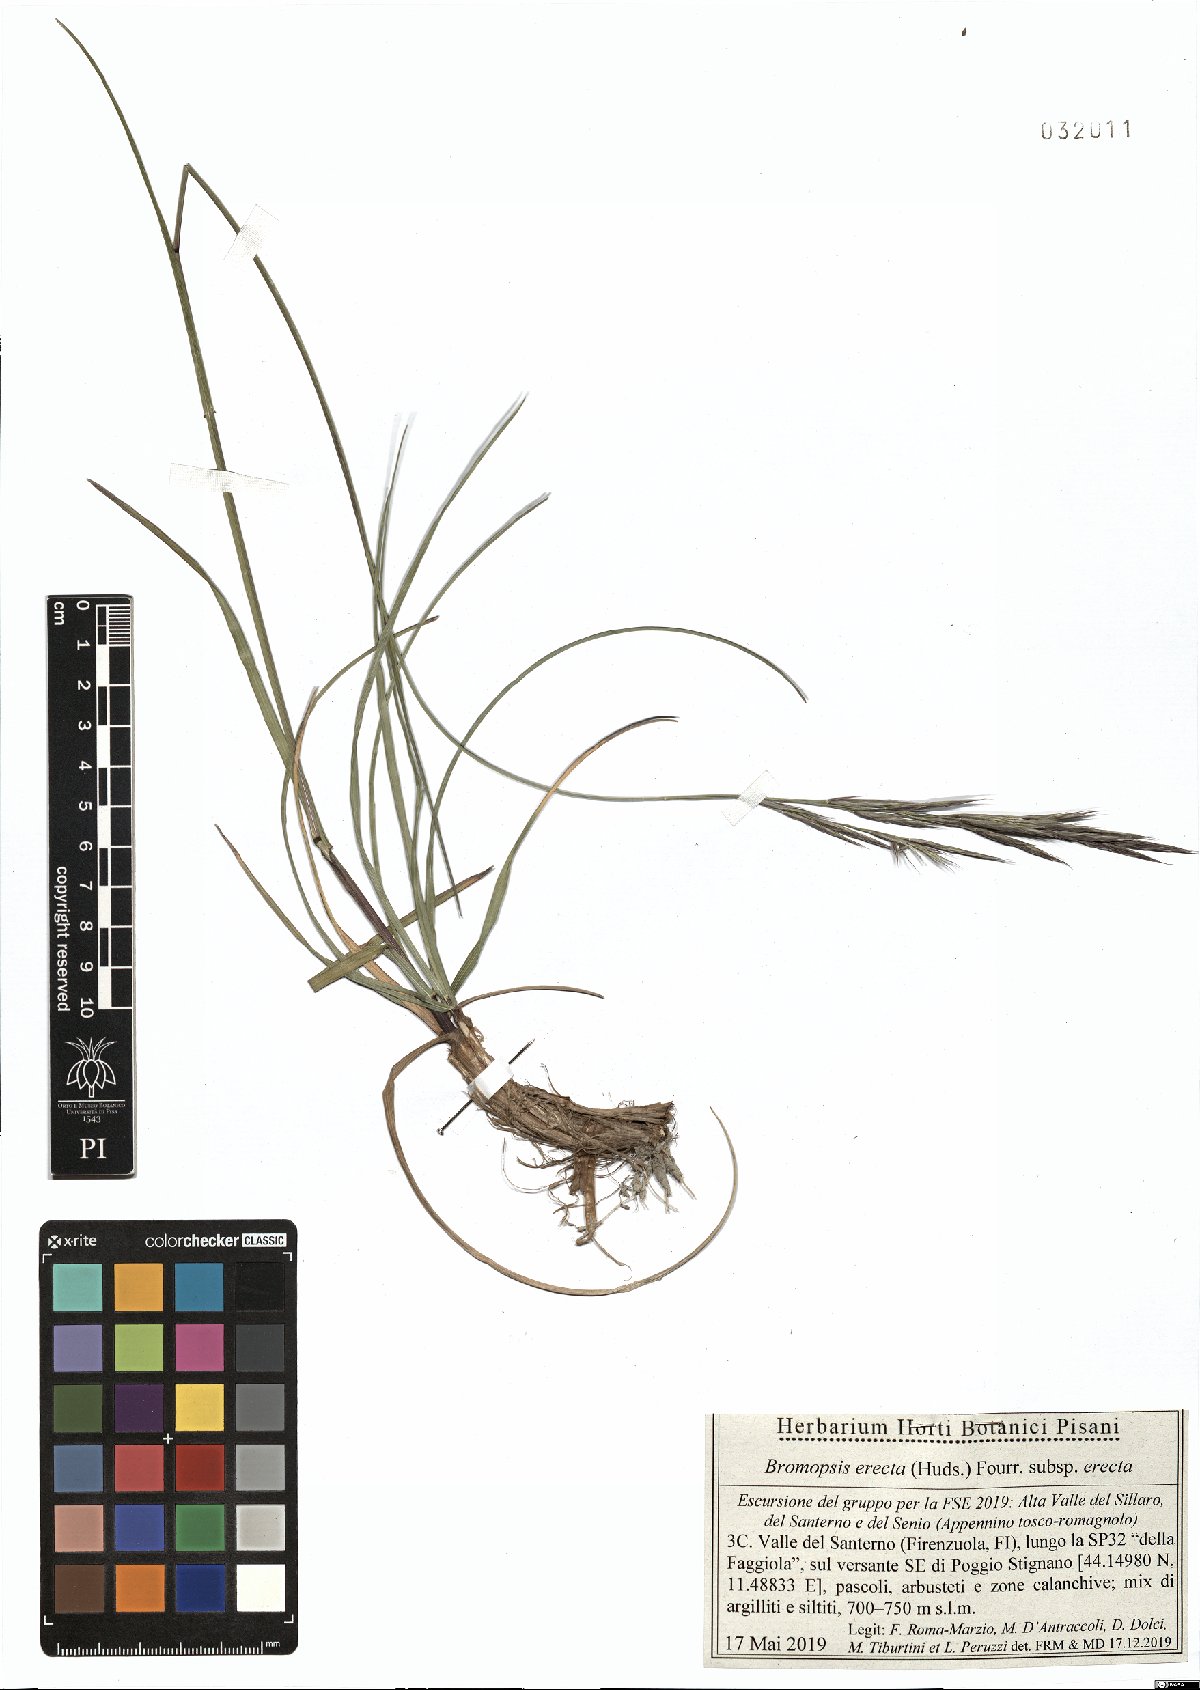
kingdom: Plantae
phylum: Tracheophyta
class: Liliopsida
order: Poales
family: Poaceae
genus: Bromus
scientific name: Bromus erectus
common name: Erect brome
